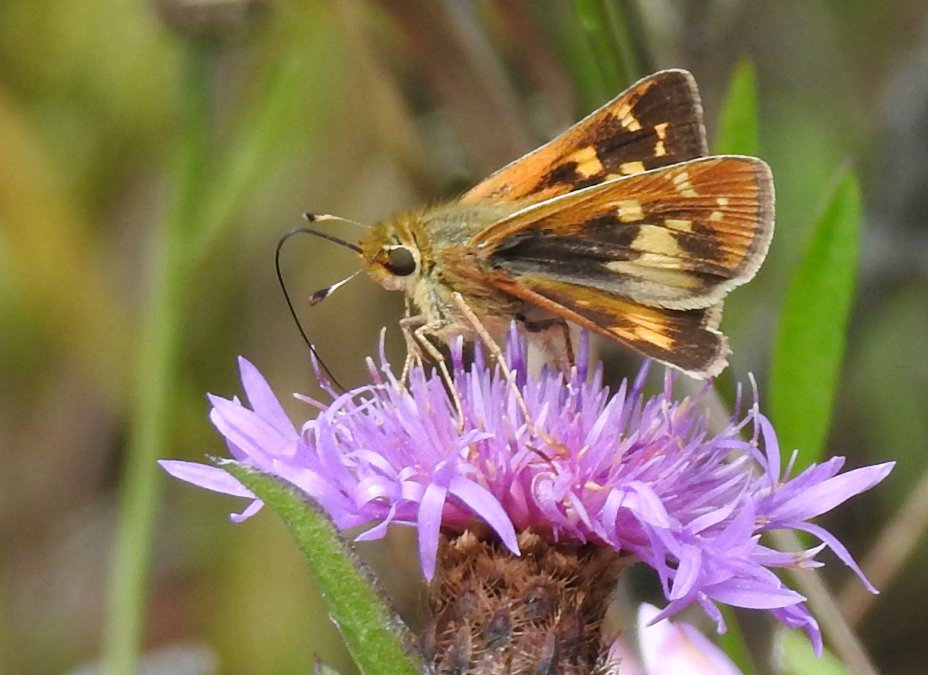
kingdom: Animalia
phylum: Arthropoda
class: Insecta
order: Lepidoptera
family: Hesperiidae
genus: Hesperia
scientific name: Hesperia leonardus
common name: Leonard's Skipper
